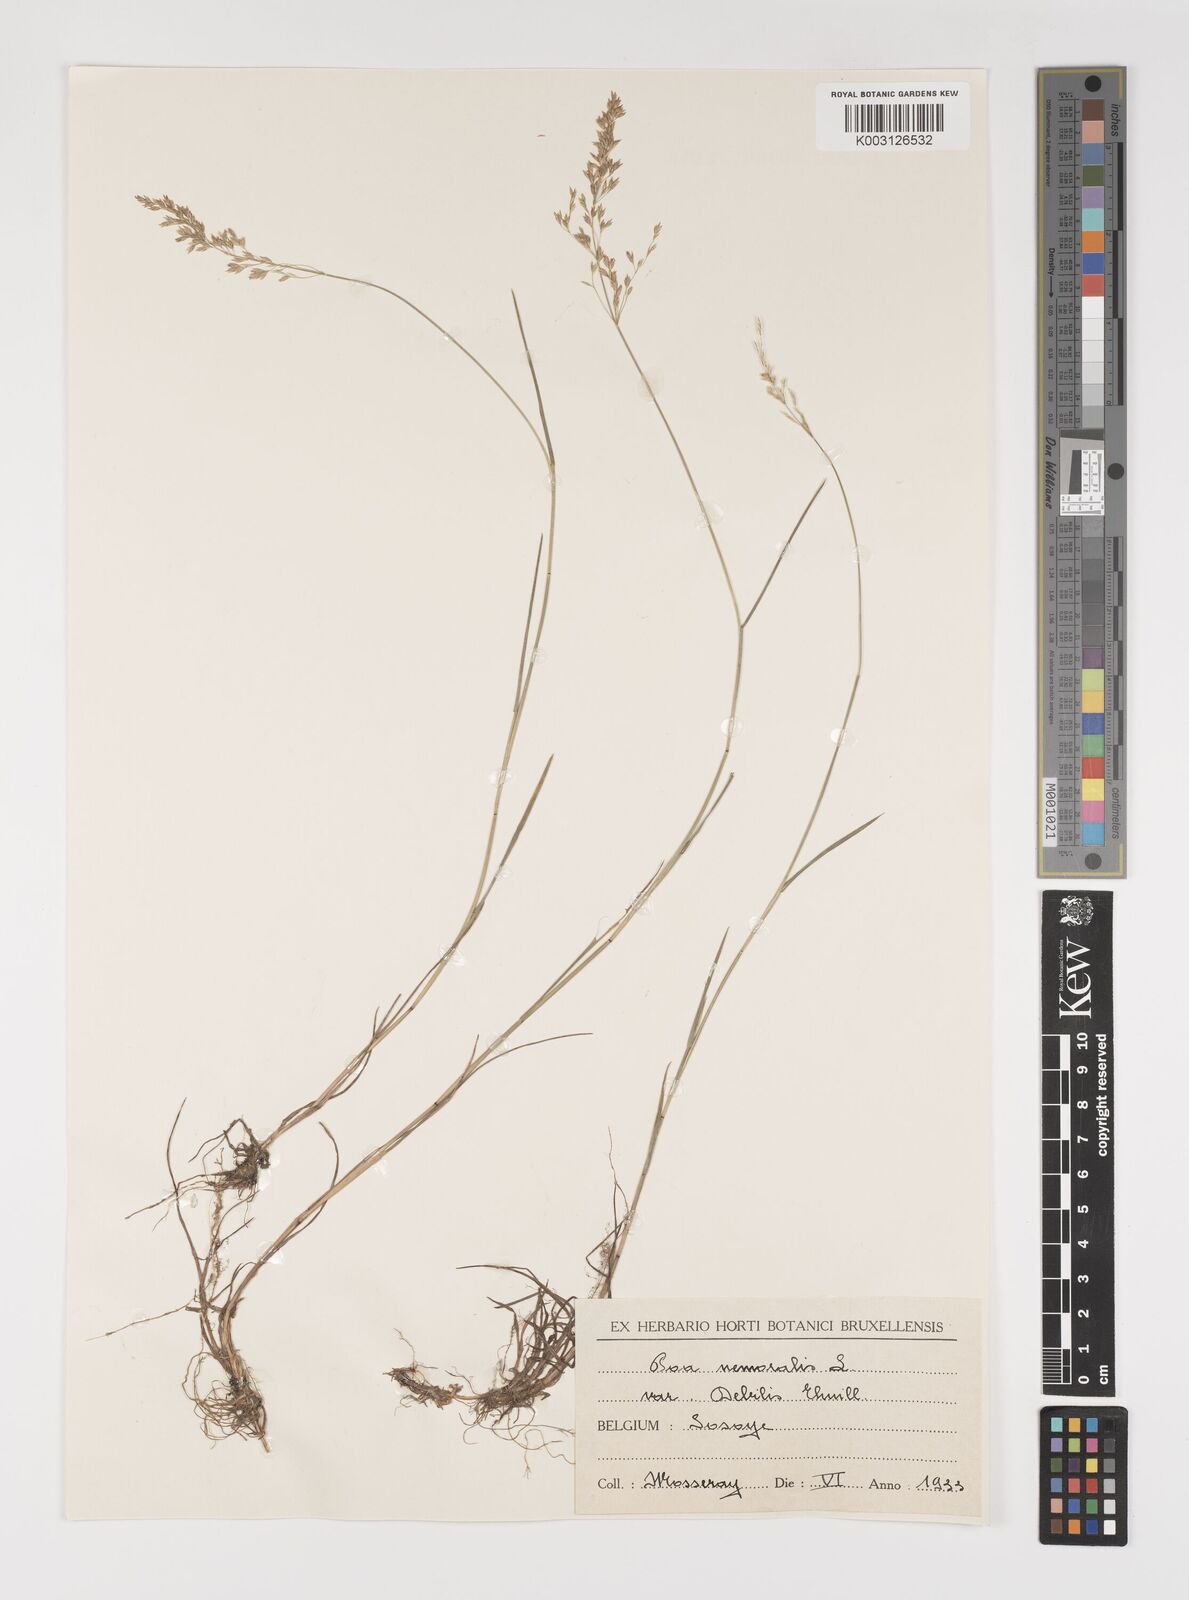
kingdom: Plantae
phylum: Tracheophyta
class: Liliopsida
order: Poales
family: Poaceae
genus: Poa
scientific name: Poa nemoralis
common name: Wood bluegrass
